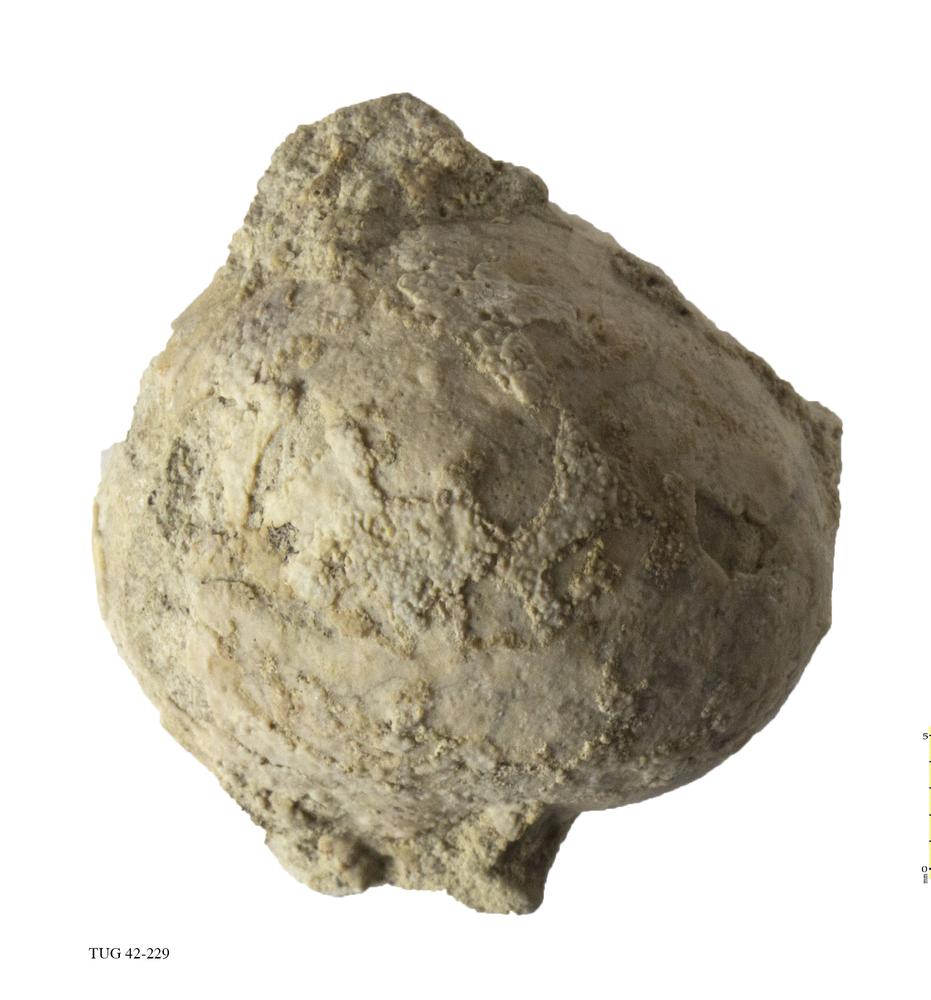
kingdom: Animalia
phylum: Echinodermata
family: Echinosphaeritidae
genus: Echinosphaerites
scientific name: Echinosphaerites Echinus aurantium
